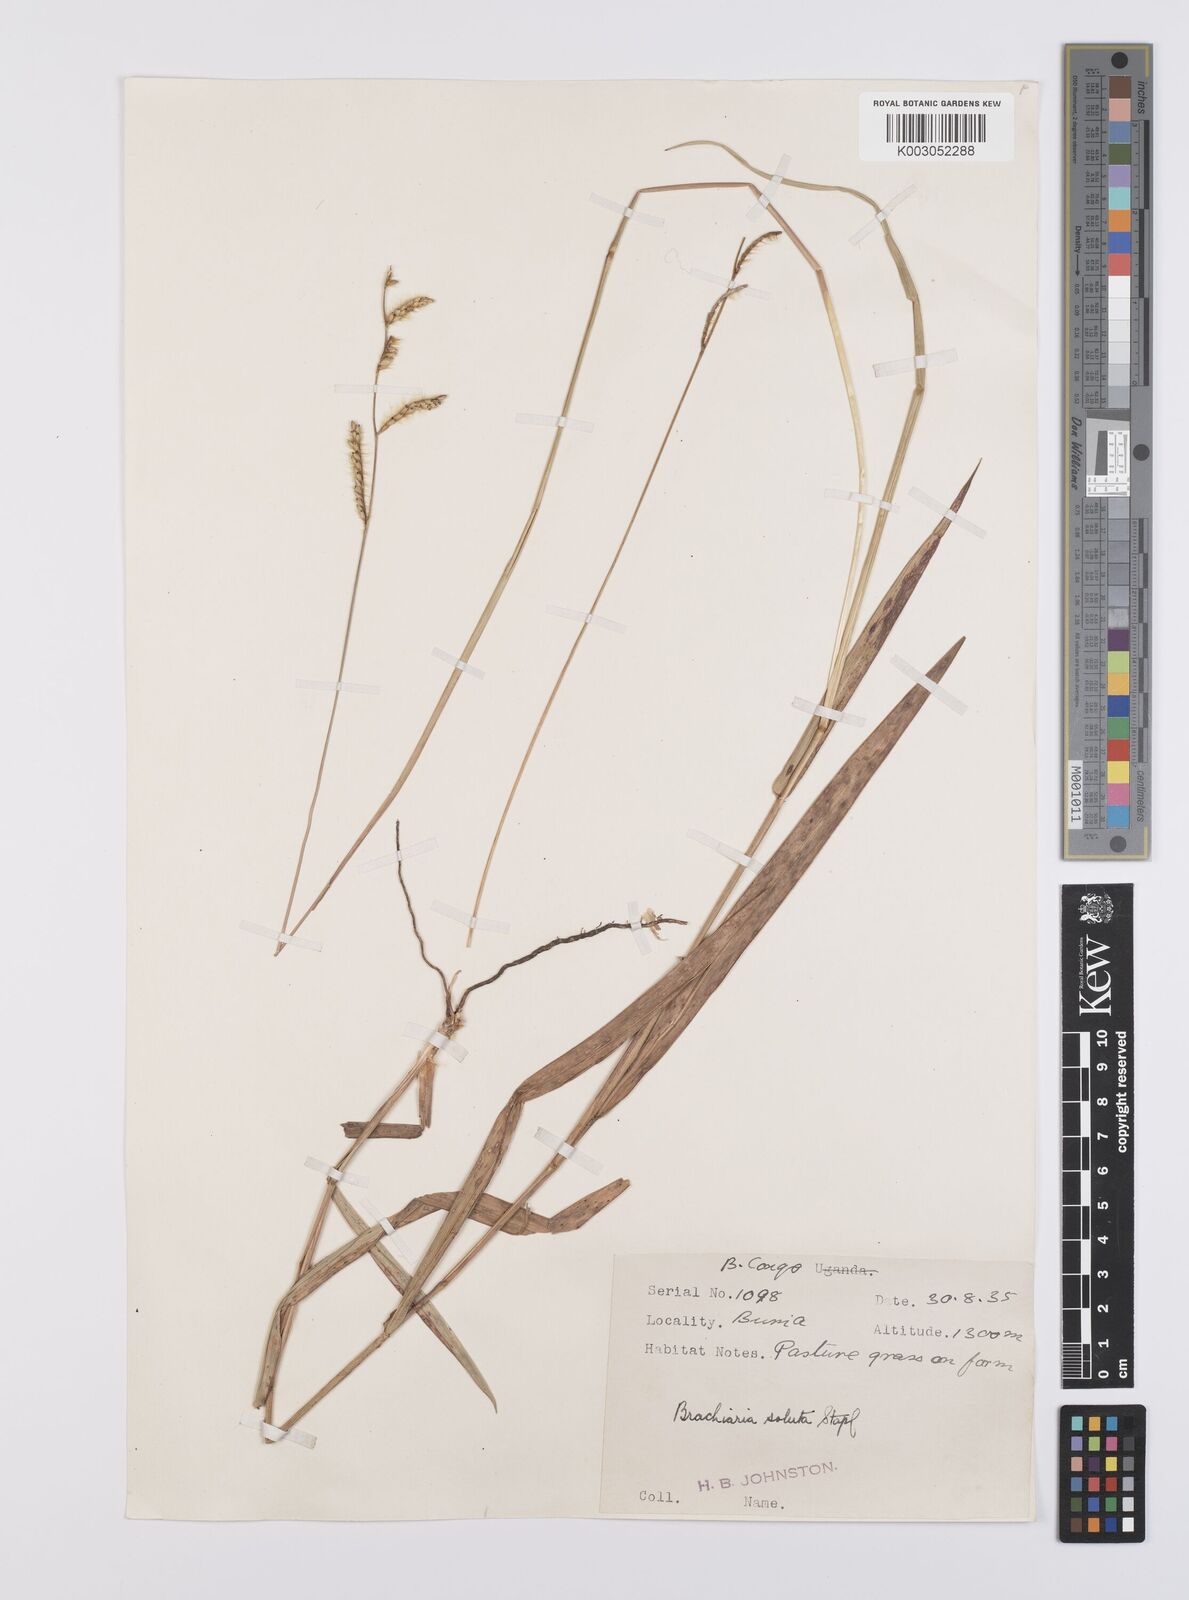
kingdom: Plantae
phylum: Tracheophyta
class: Liliopsida
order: Poales
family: Poaceae
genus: Urochloa
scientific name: Urochloa jubata
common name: Buffalograss
